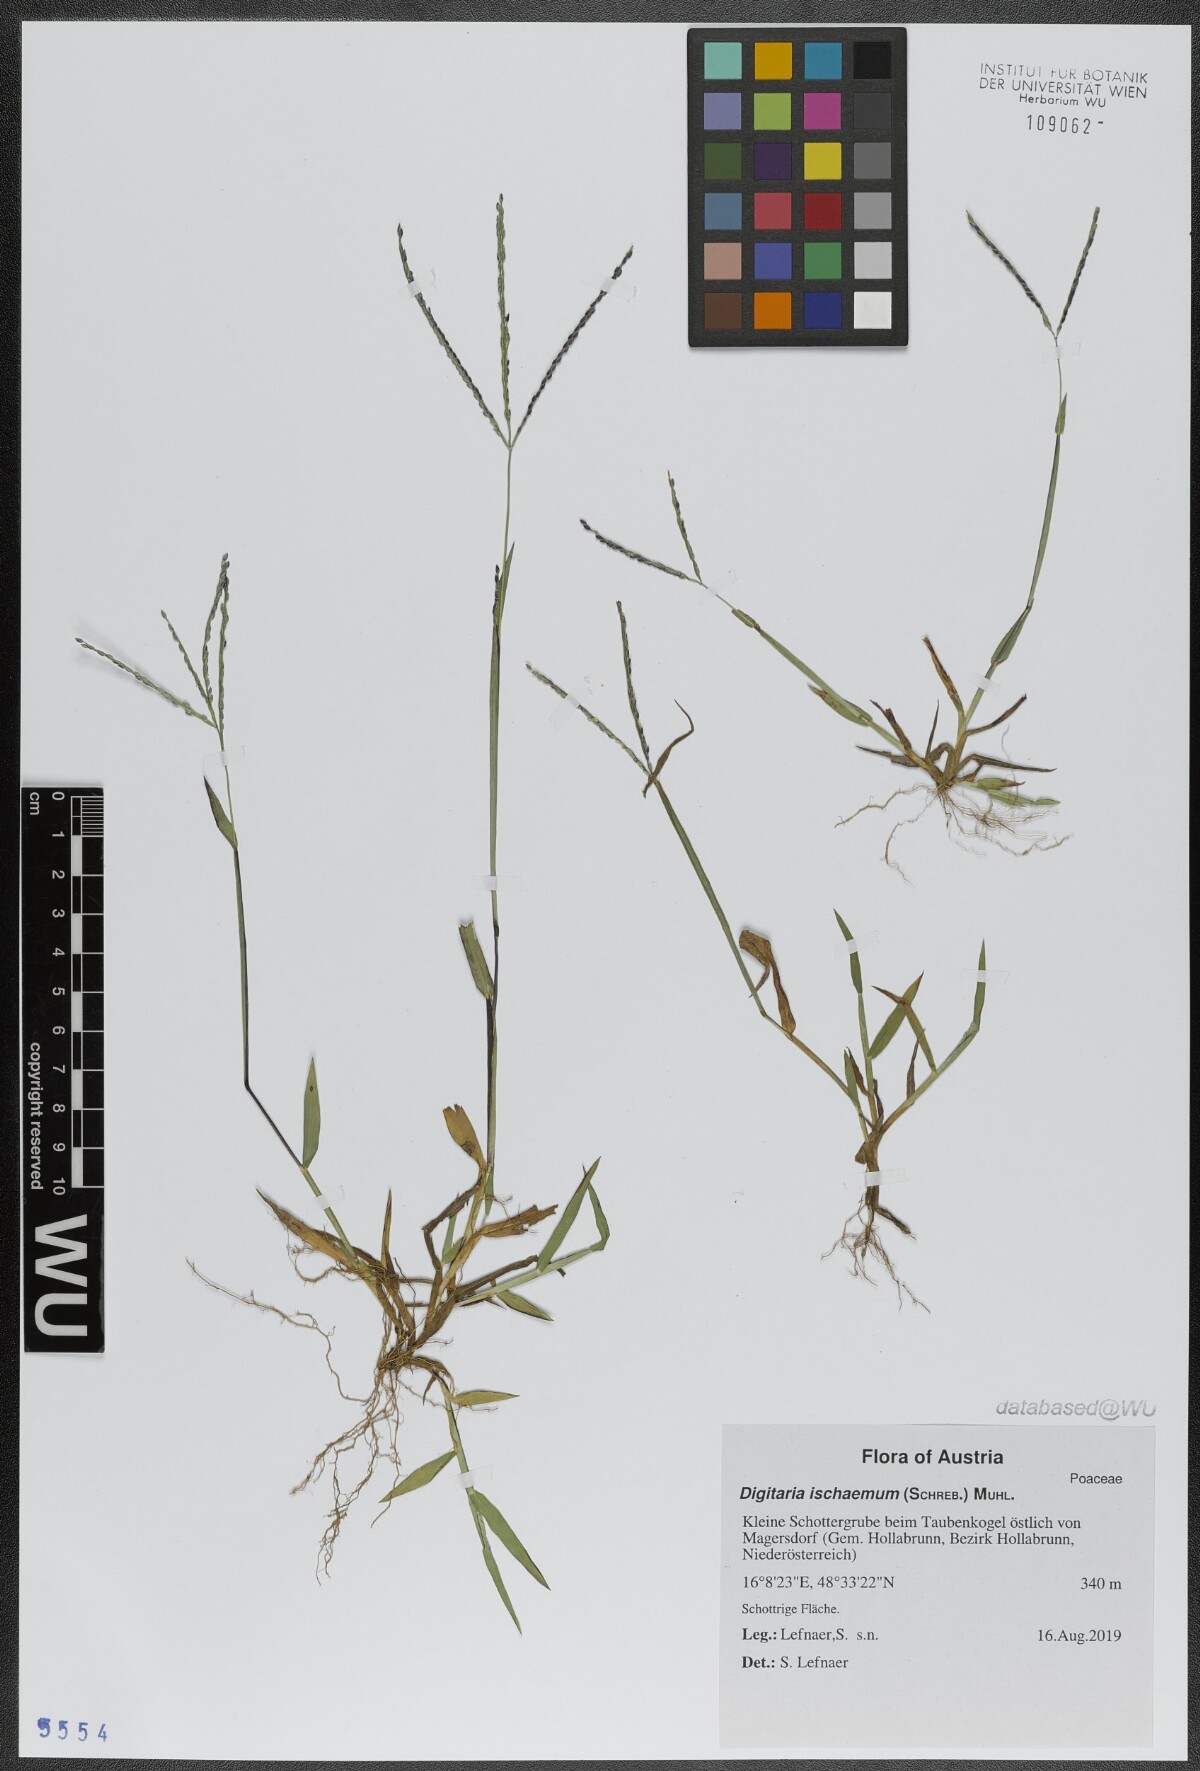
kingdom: Plantae
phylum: Tracheophyta
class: Liliopsida
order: Poales
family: Poaceae
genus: Digitaria
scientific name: Digitaria ischaemum
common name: Smooth crabgrass
